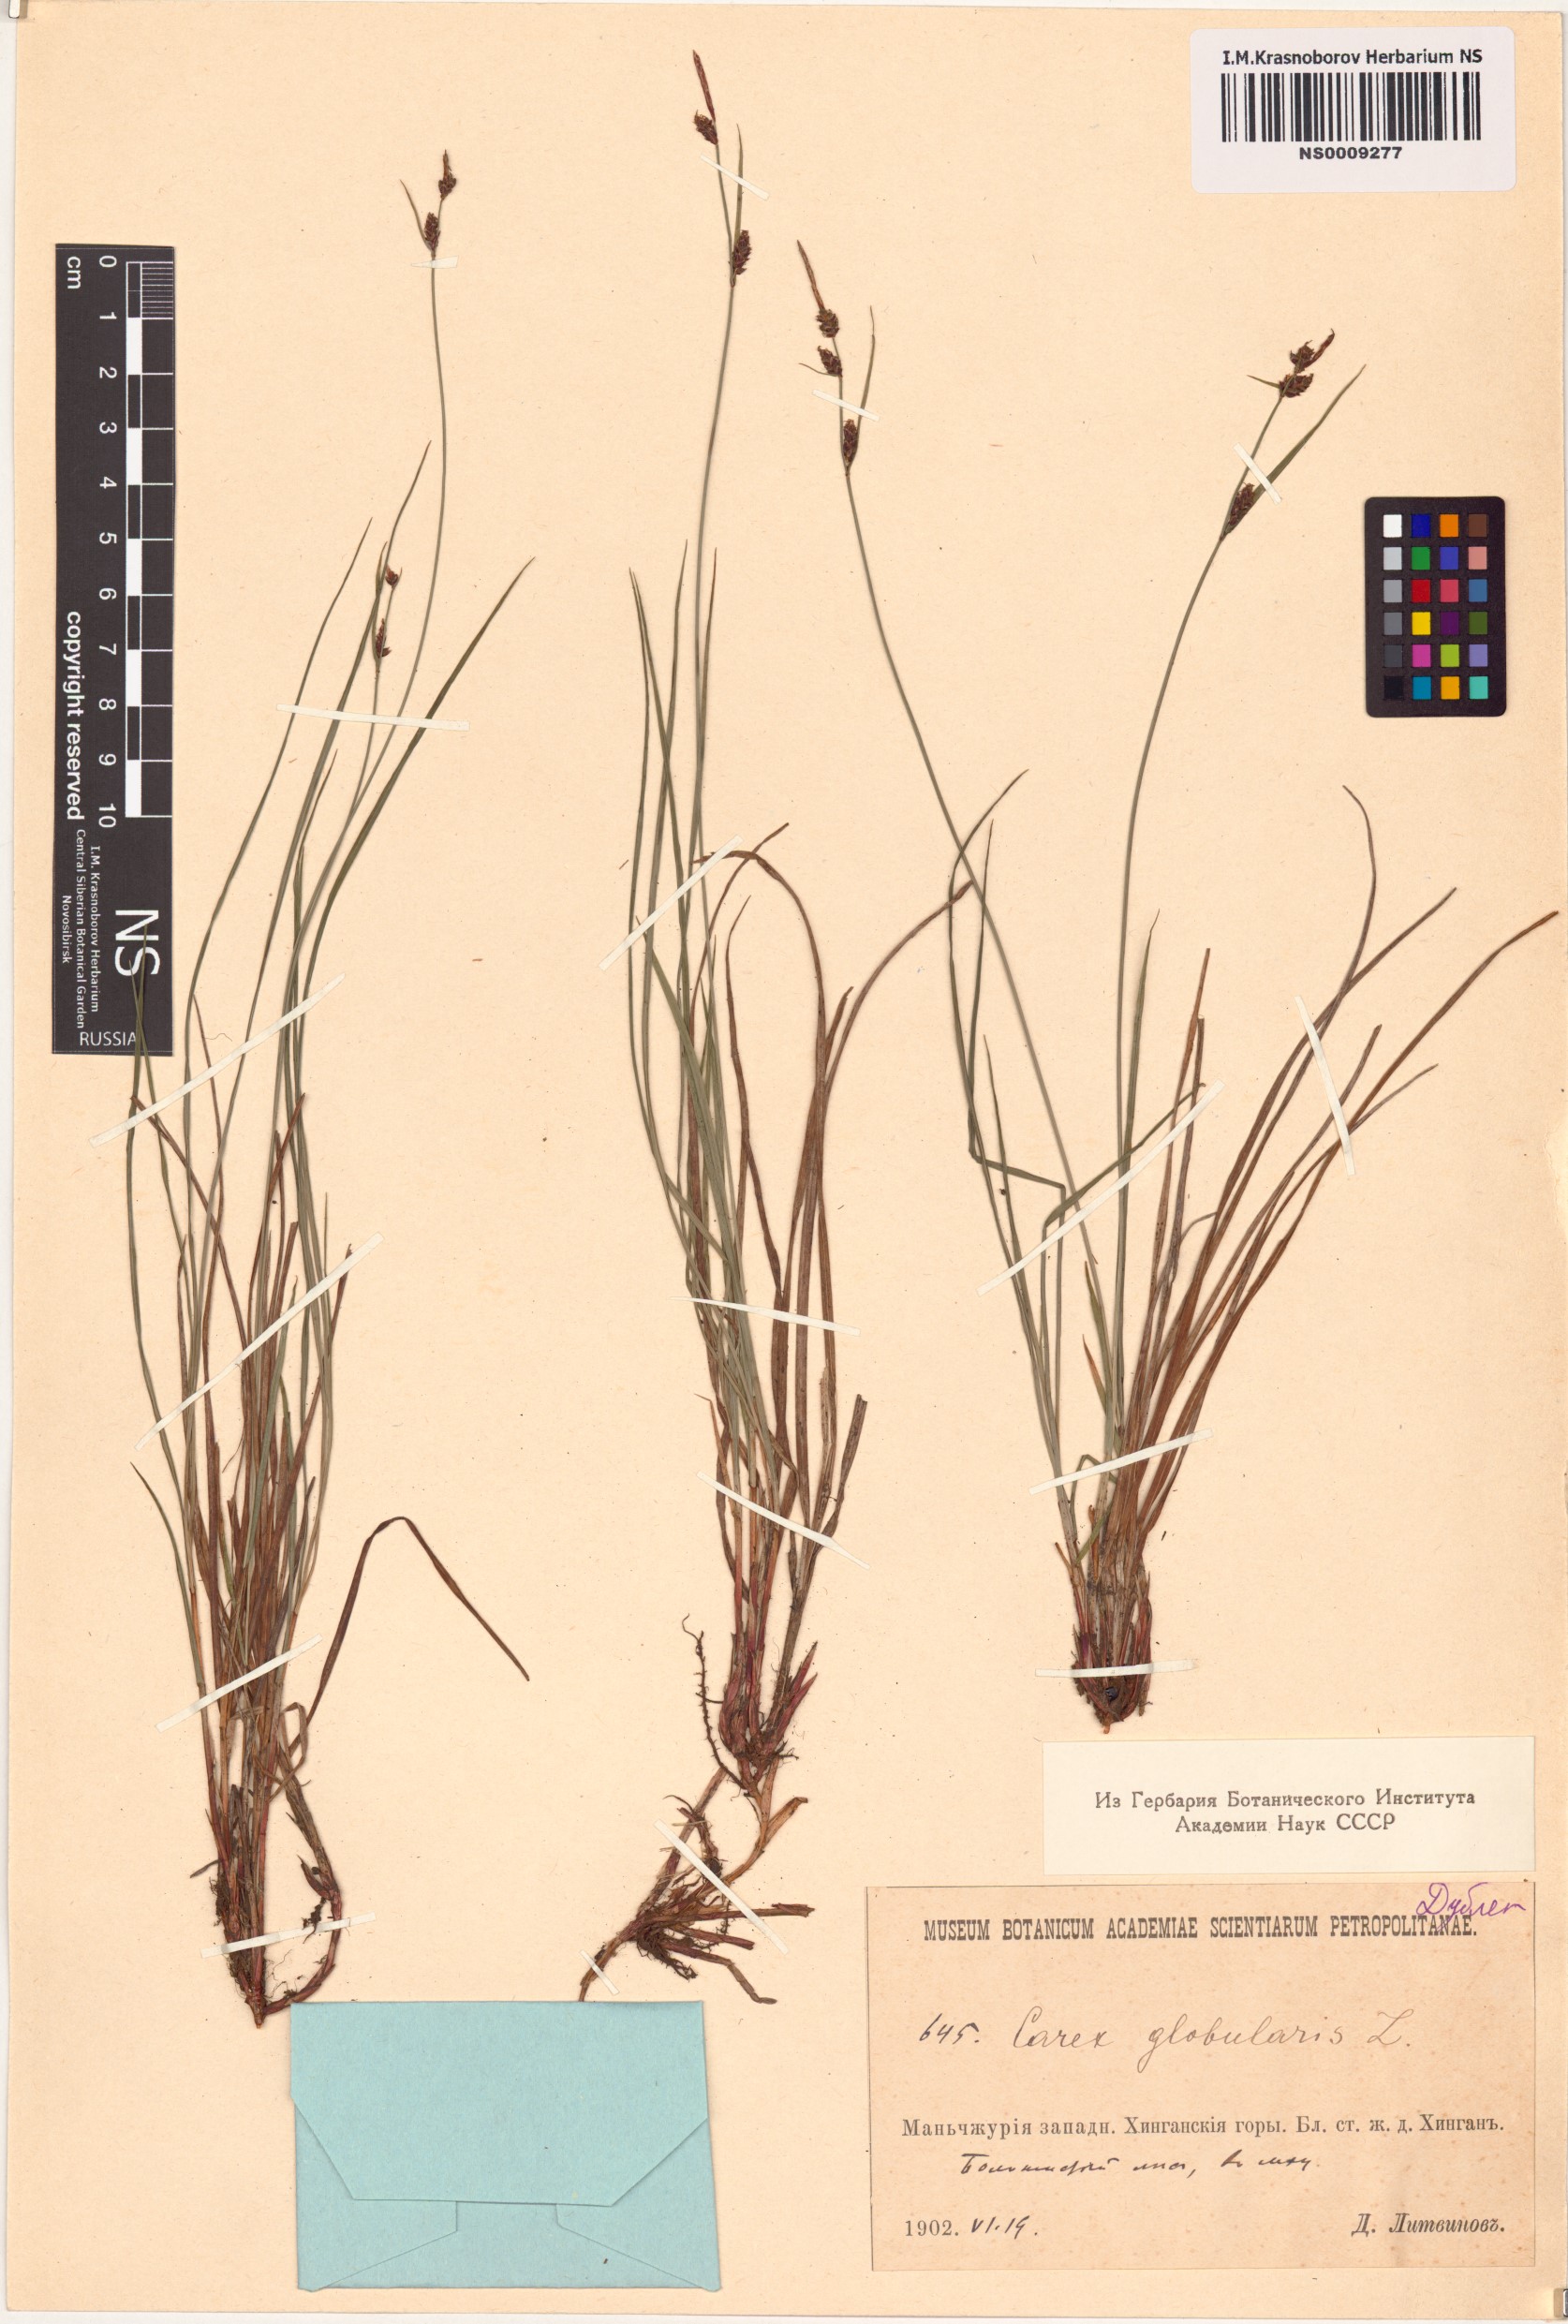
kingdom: Plantae
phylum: Tracheophyta
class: Liliopsida
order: Poales
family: Cyperaceae
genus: Carex
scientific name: Carex globularis
